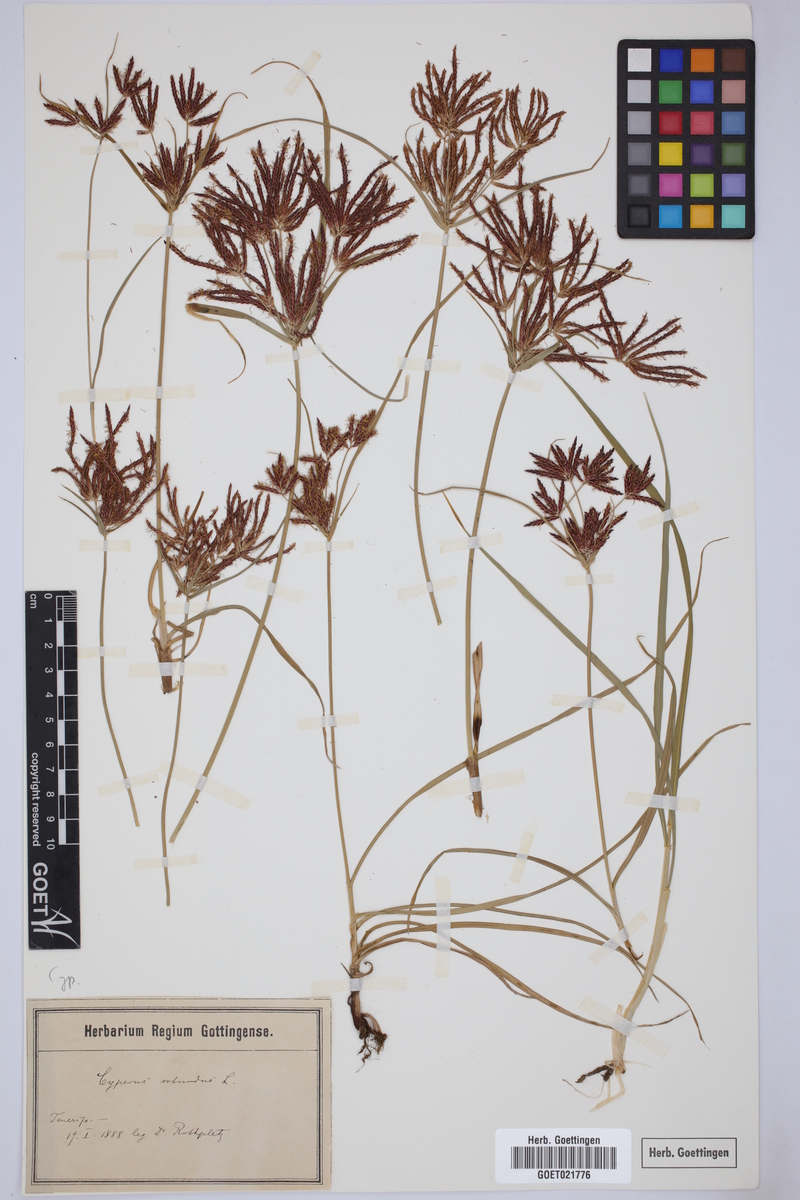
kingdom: Plantae
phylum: Tracheophyta
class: Liliopsida
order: Poales
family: Cyperaceae
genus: Cyperus
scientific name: Cyperus rotundus
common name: Nutgrass
